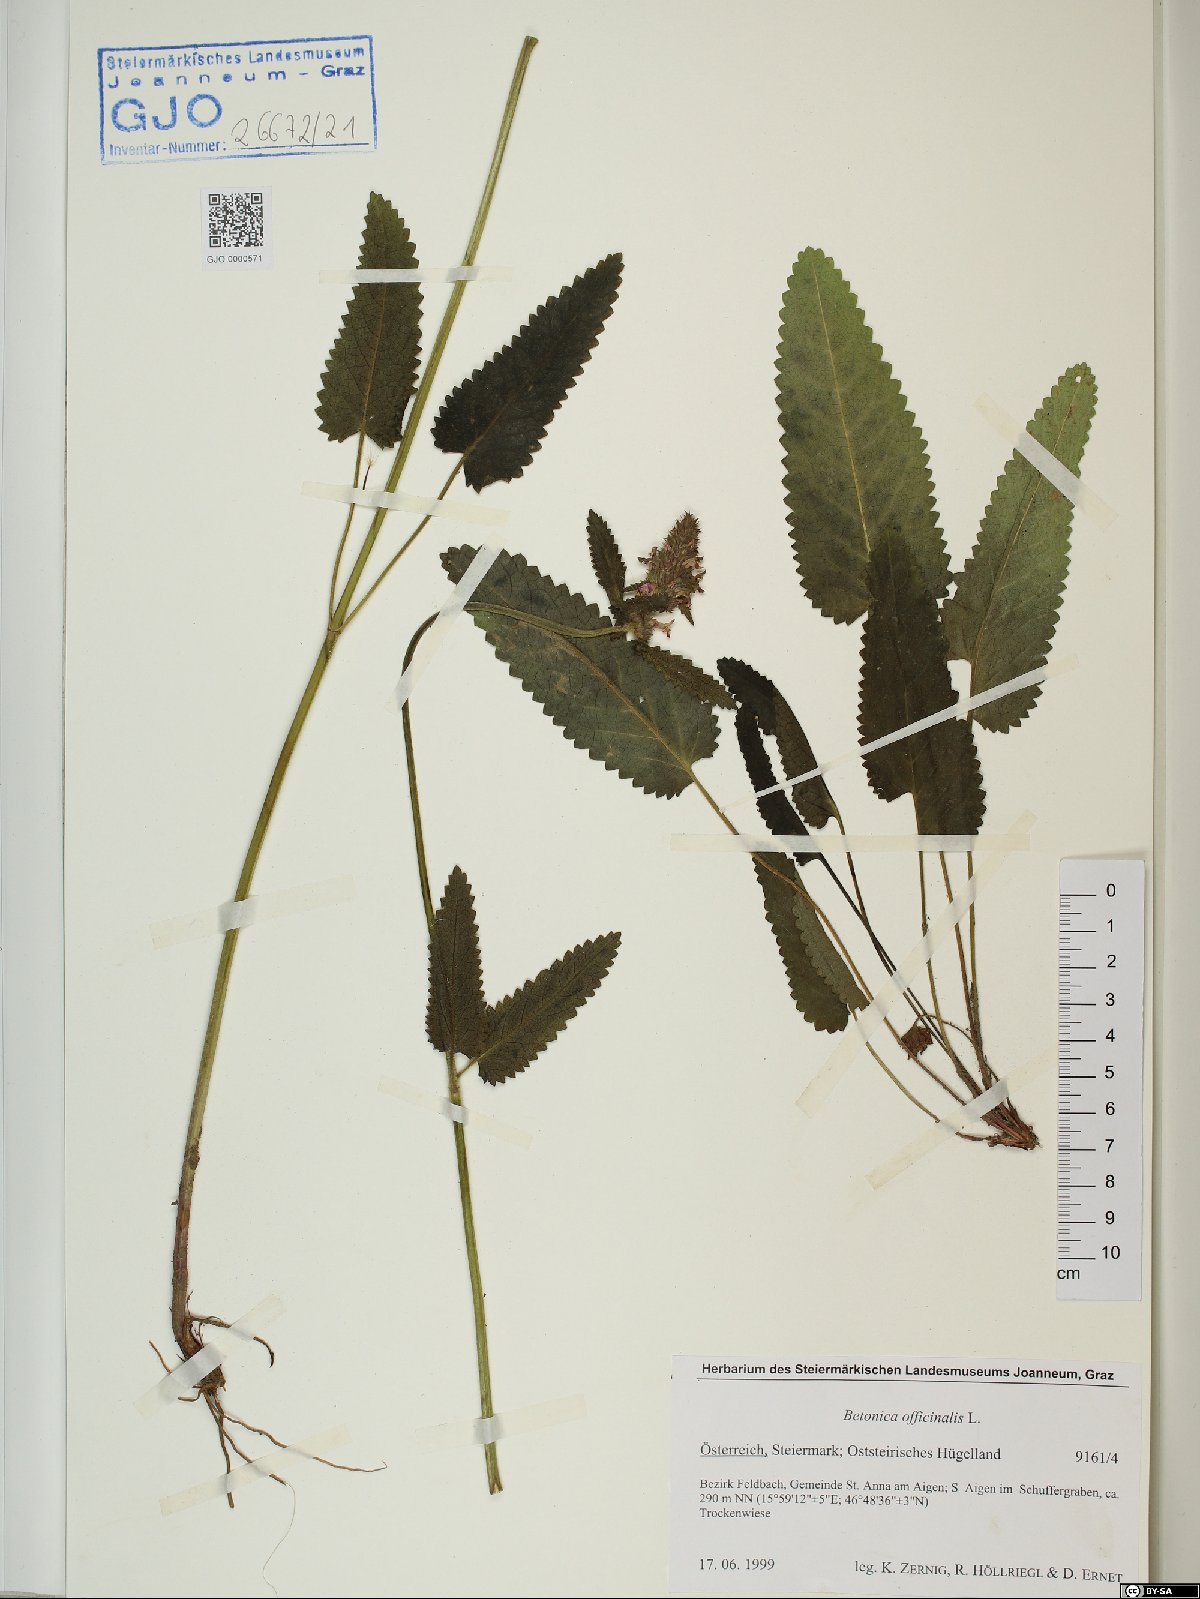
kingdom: Plantae
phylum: Tracheophyta
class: Magnoliopsida
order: Lamiales
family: Lamiaceae
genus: Betonica
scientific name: Betonica officinalis
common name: Bishop's-wort
